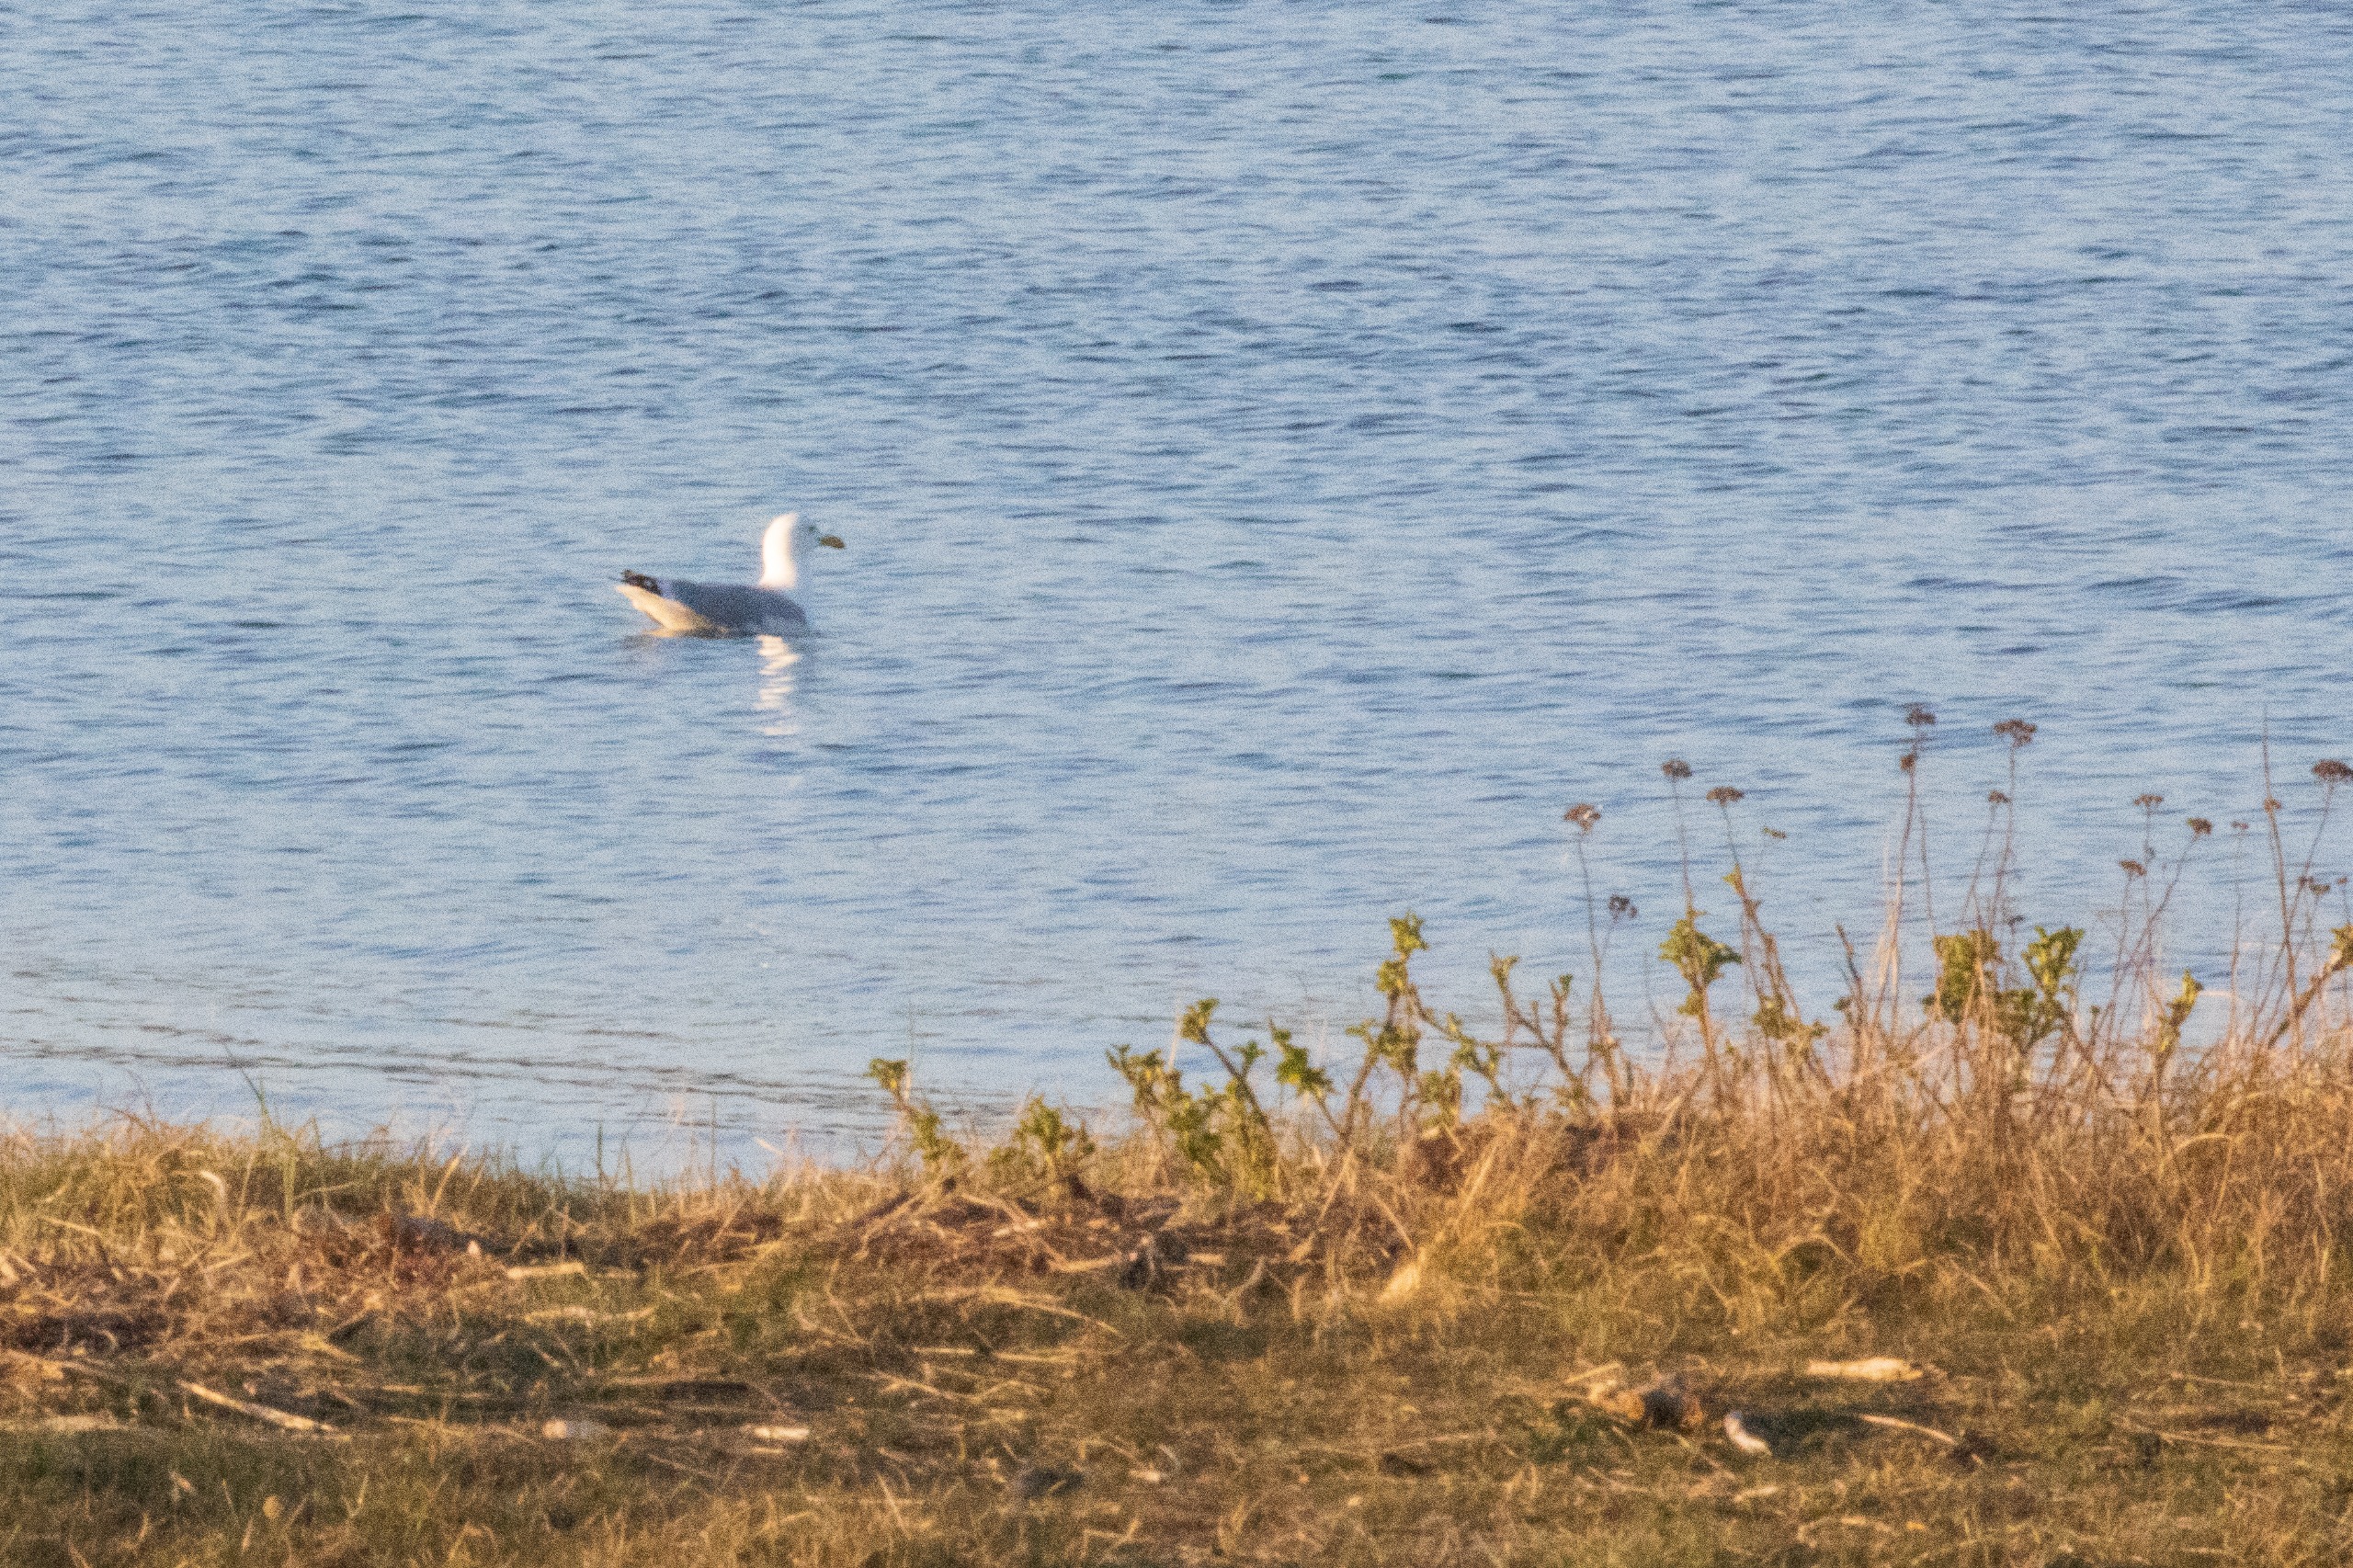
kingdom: Animalia
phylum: Chordata
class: Aves
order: Charadriiformes
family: Laridae
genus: Larus
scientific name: Larus argentatus
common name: Sølvmåge
